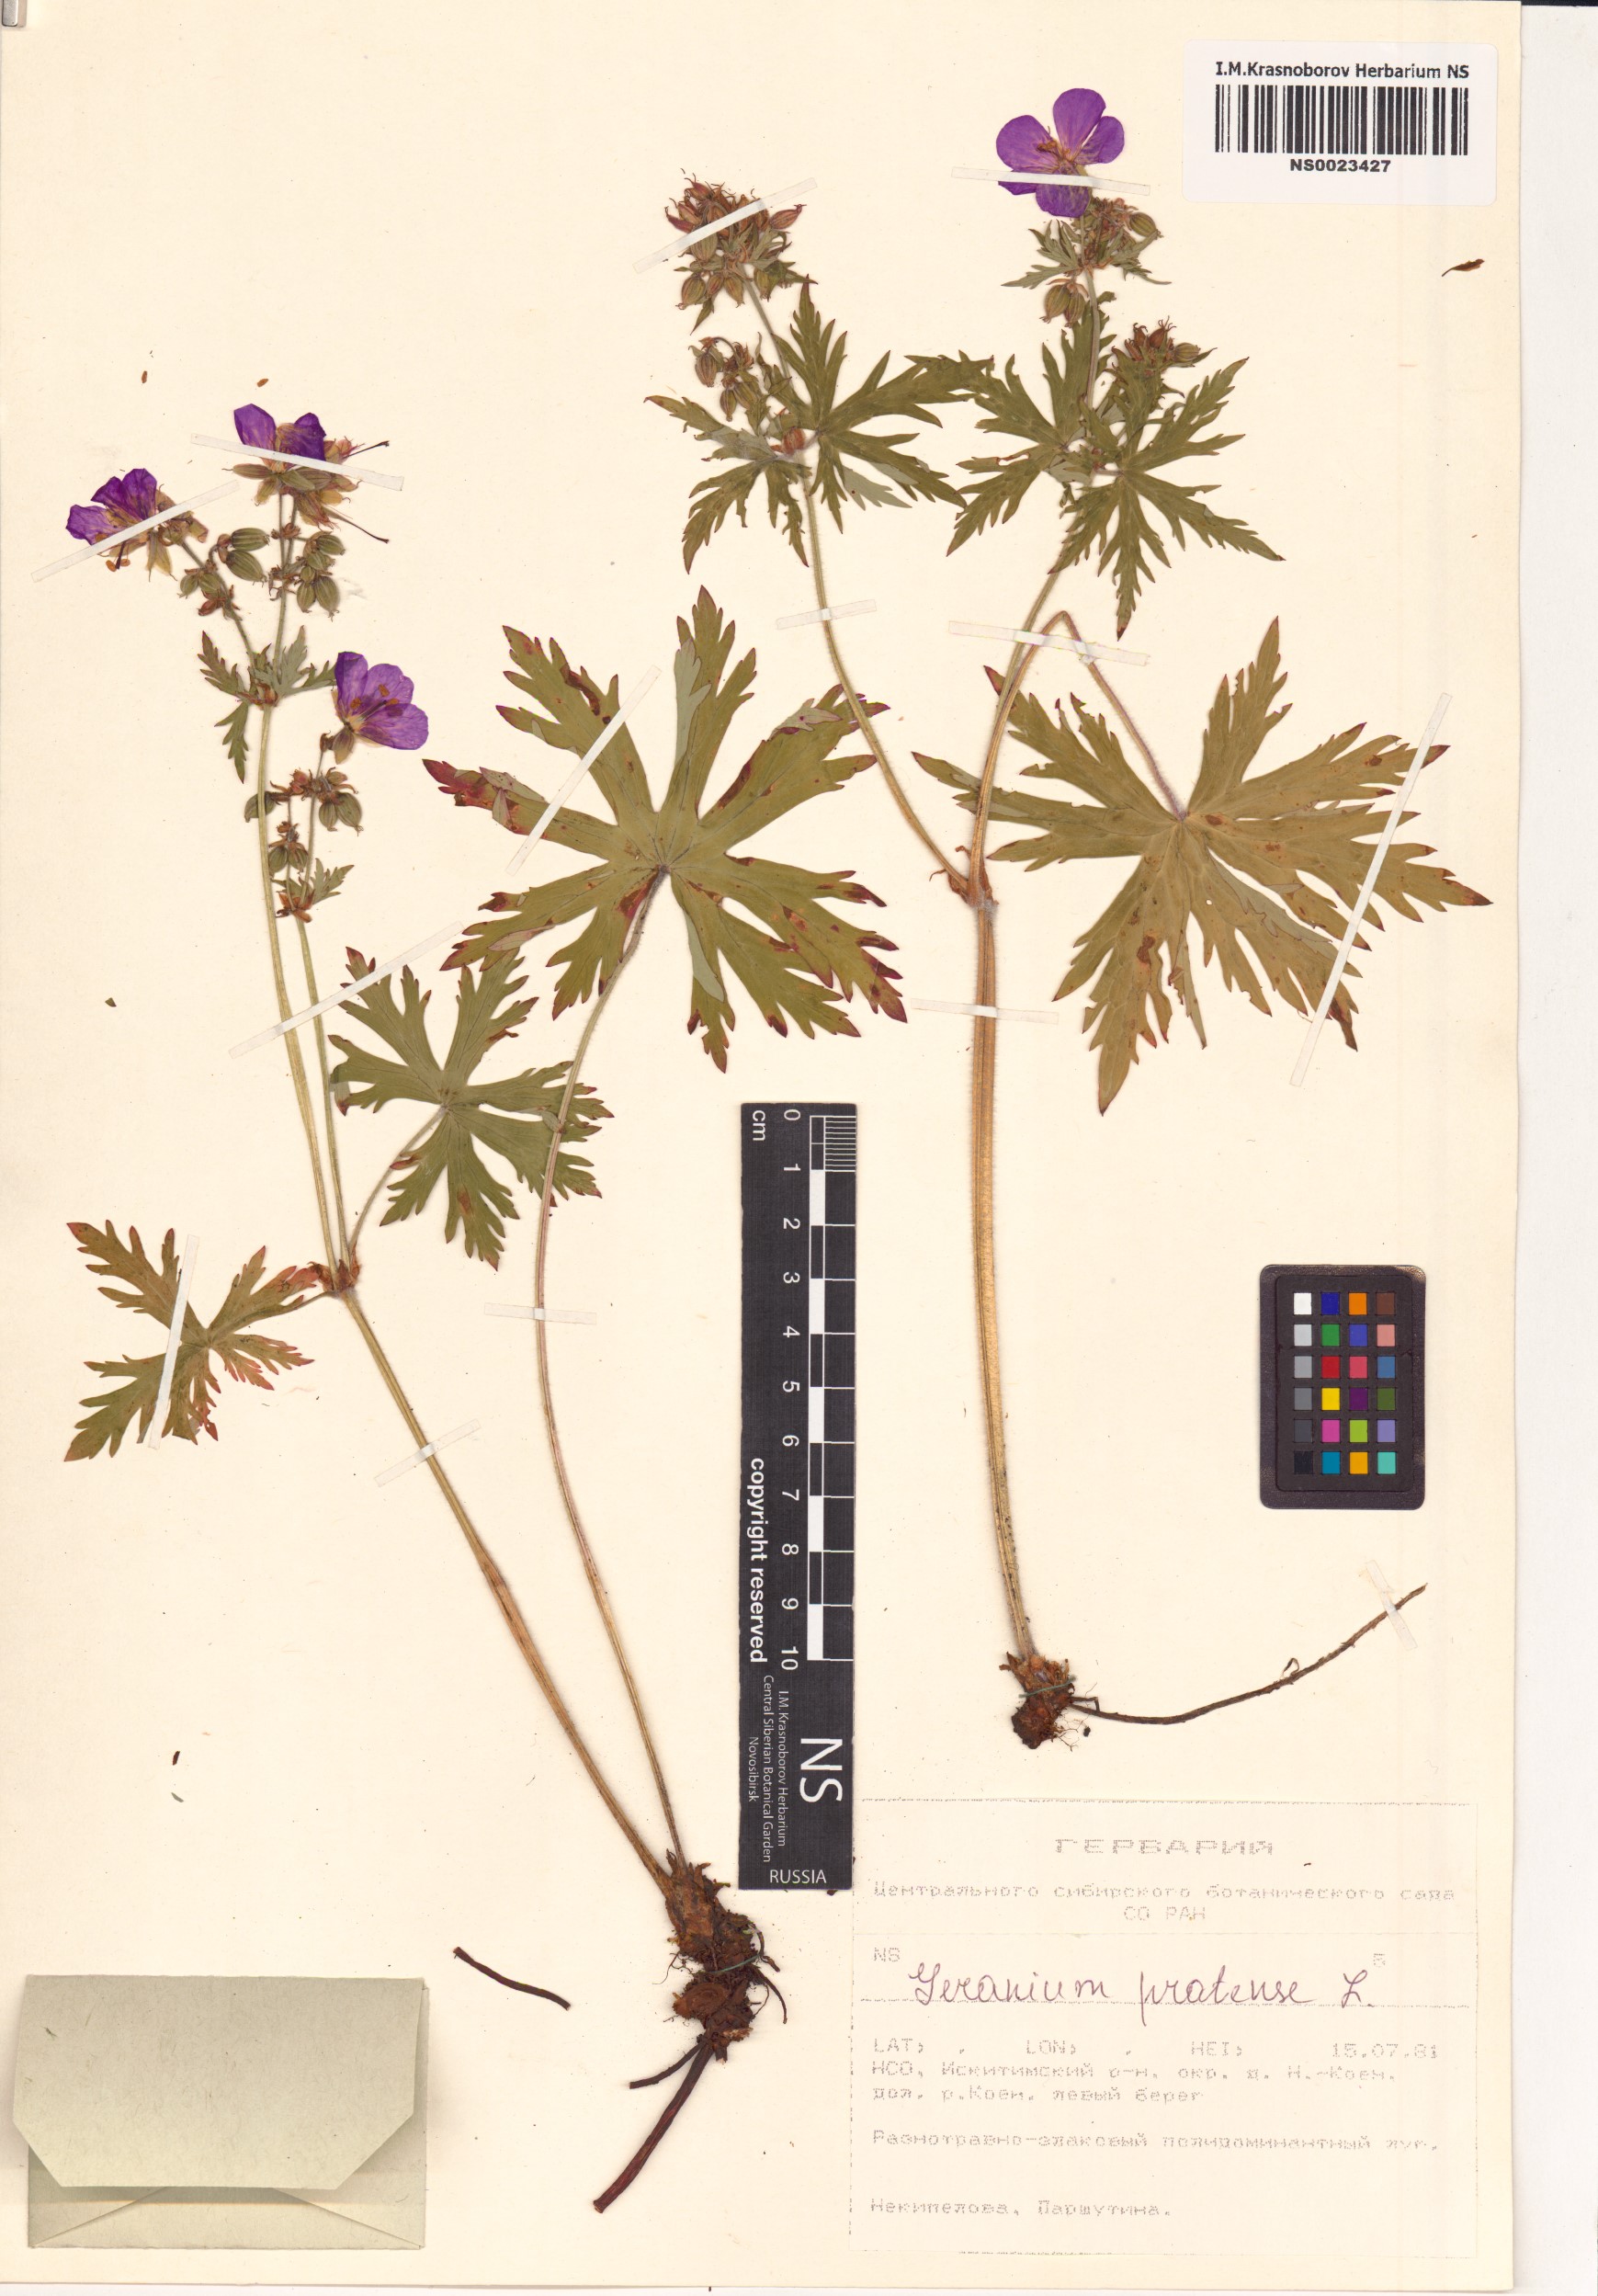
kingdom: Plantae
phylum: Tracheophyta
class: Magnoliopsida
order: Geraniales
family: Geraniaceae
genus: Geranium
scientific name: Geranium pratense
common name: Meadow crane's-bill
